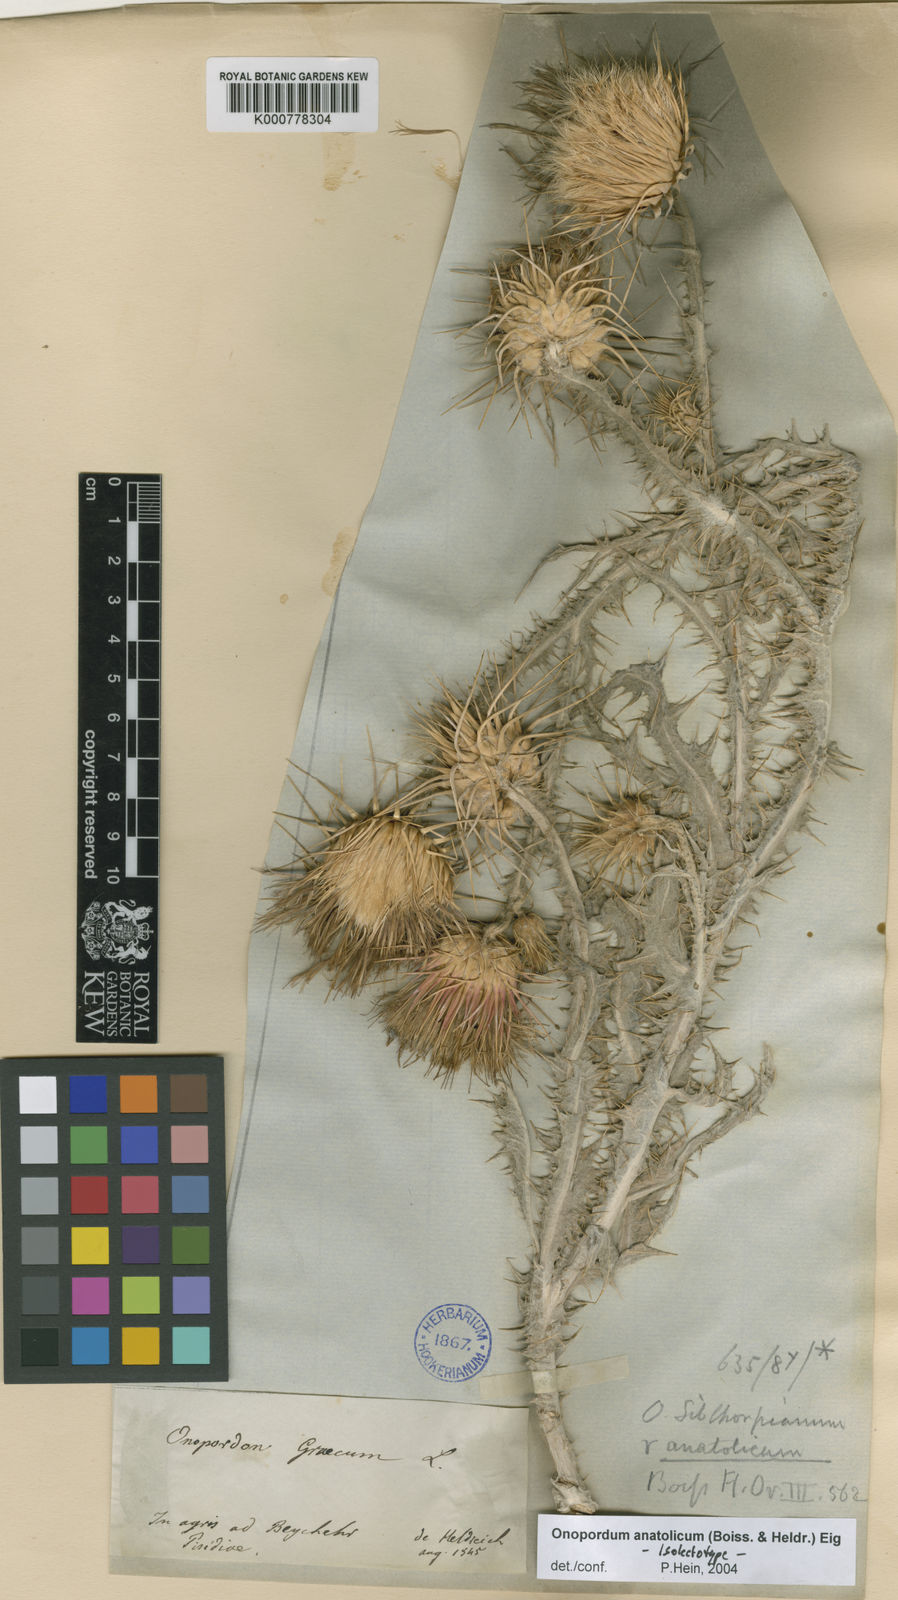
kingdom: Plantae
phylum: Tracheophyta
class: Magnoliopsida
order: Asterales
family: Asteraceae
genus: Onopordum
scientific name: Onopordum anatolicum
